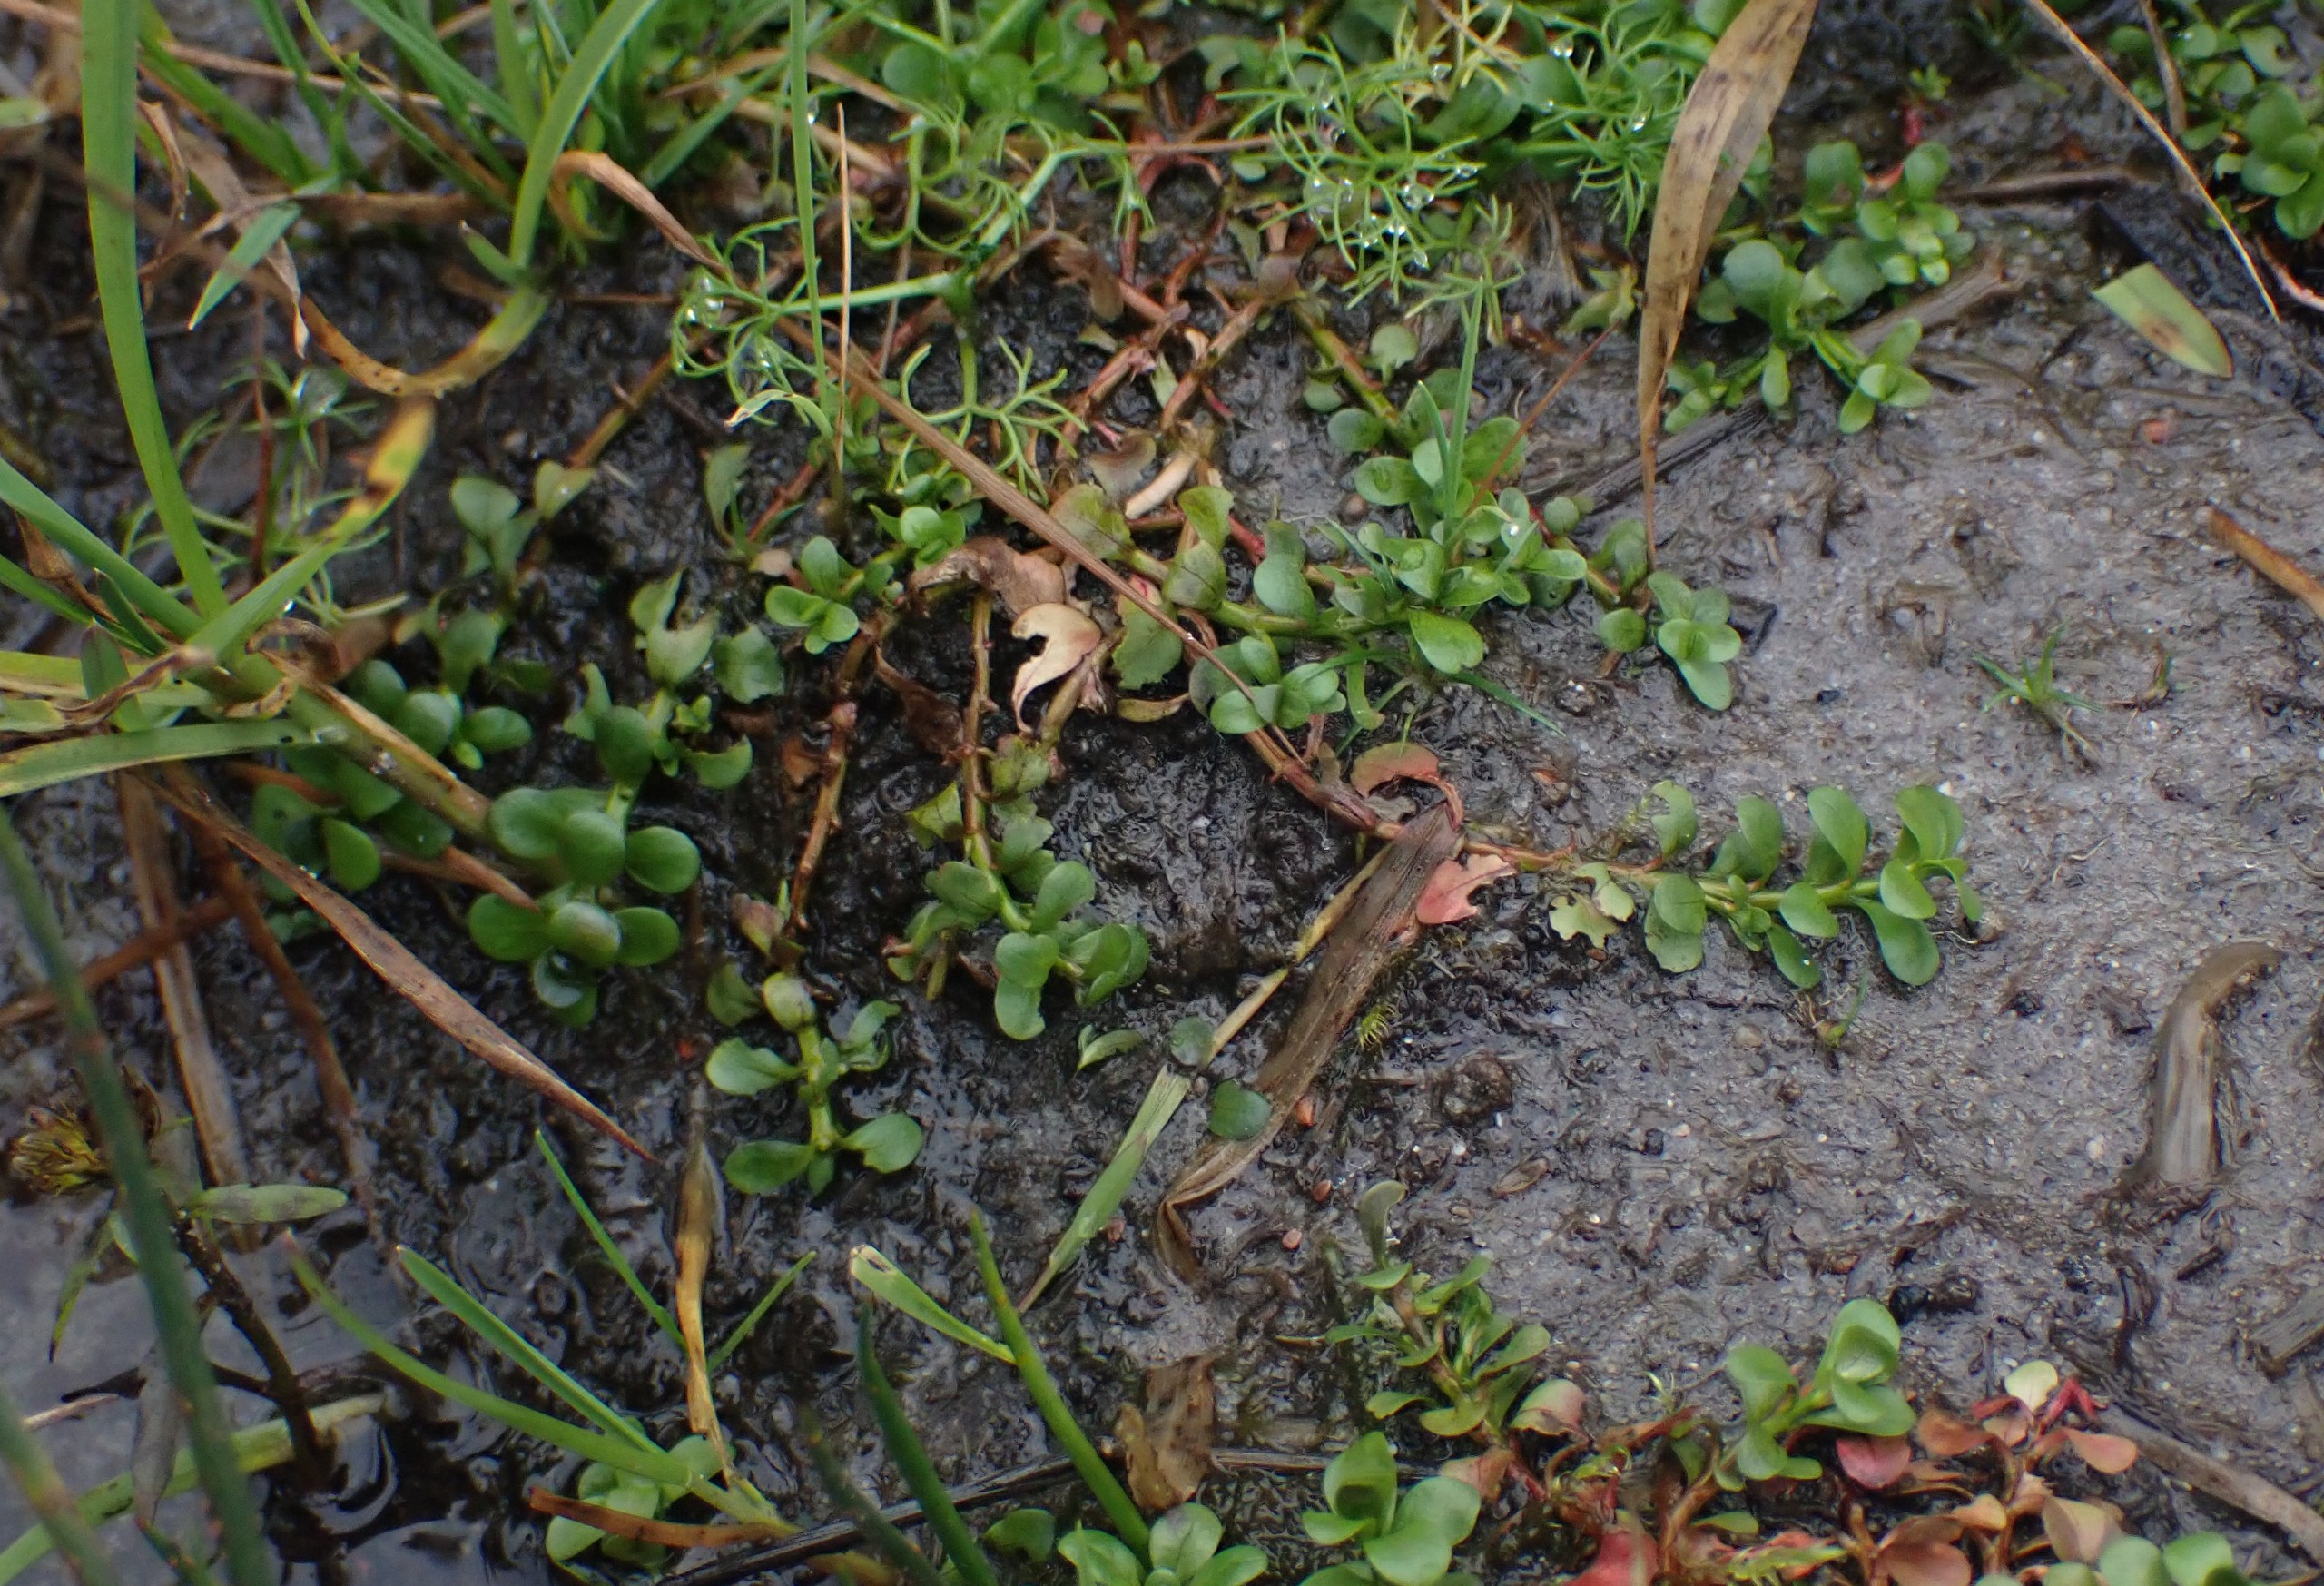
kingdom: Plantae
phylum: Tracheophyta
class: Magnoliopsida
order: Myrtales
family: Lythraceae
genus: Lythrum
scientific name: Lythrum portula
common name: Vandportulak
